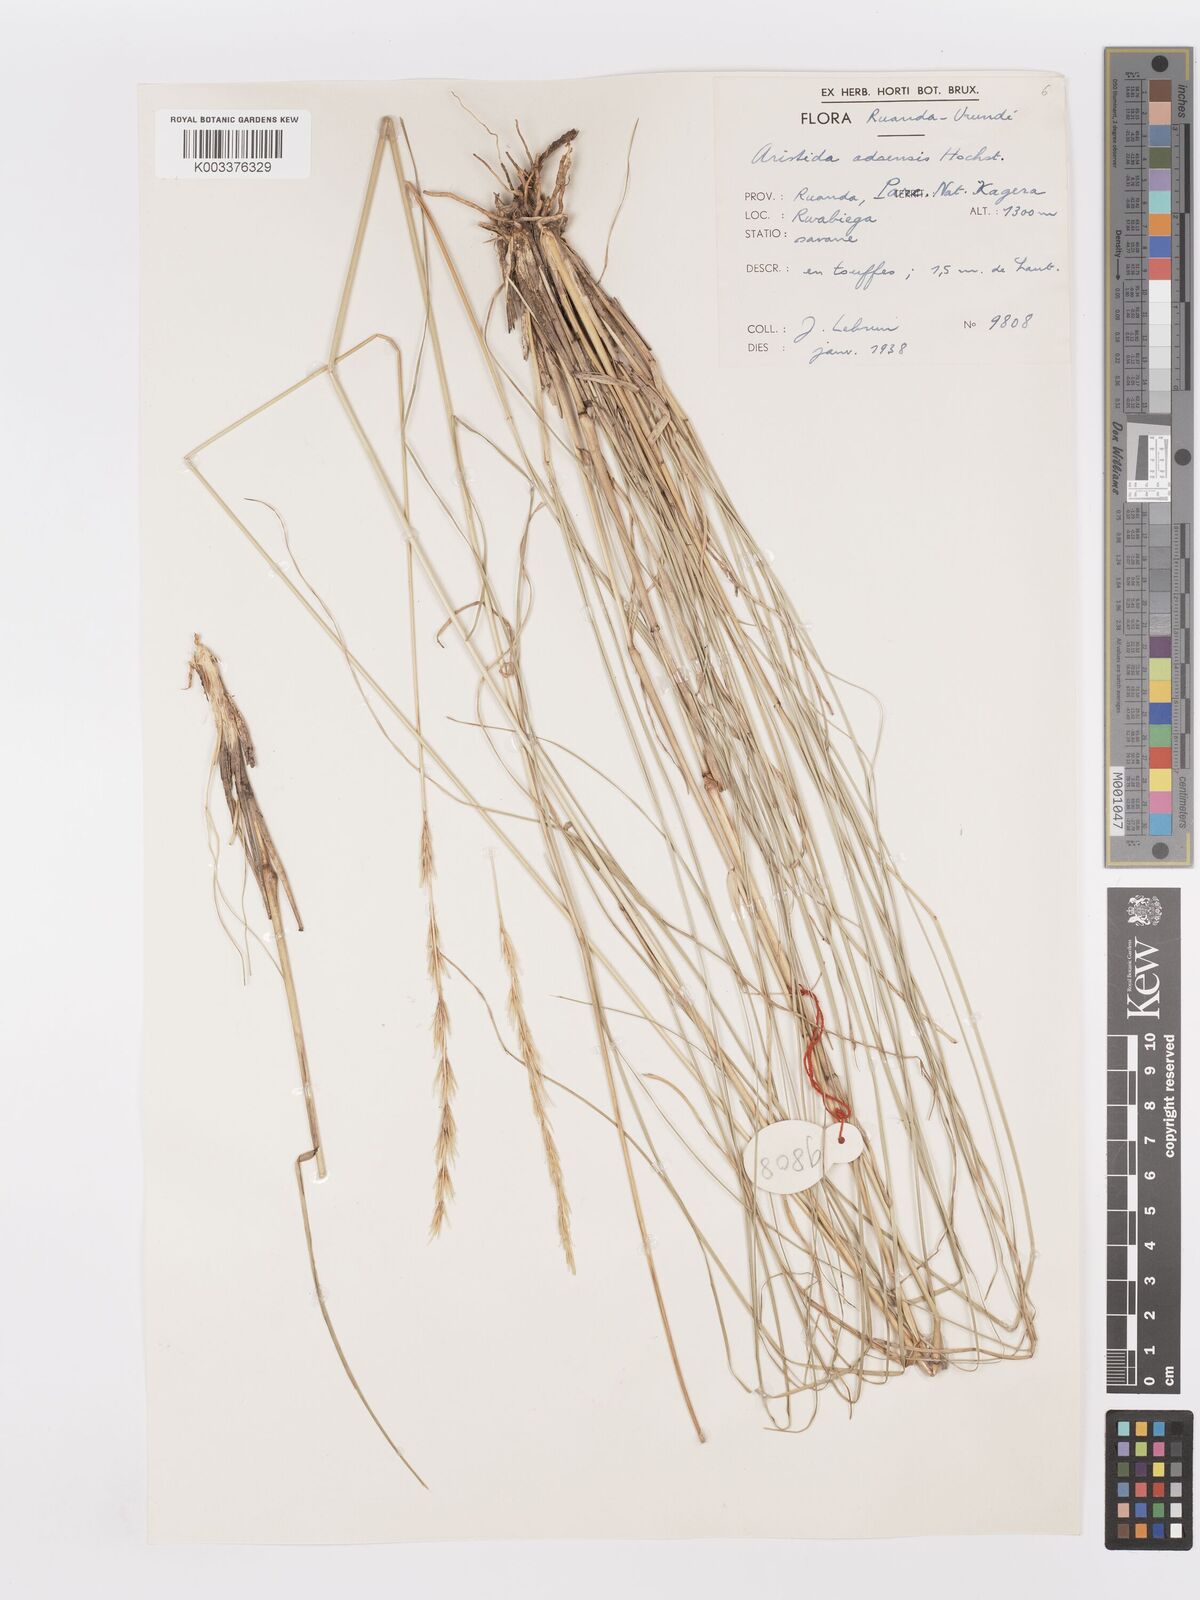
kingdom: Plantae
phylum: Tracheophyta
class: Liliopsida
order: Poales
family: Poaceae
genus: Aristida
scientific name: Aristida adoensis
